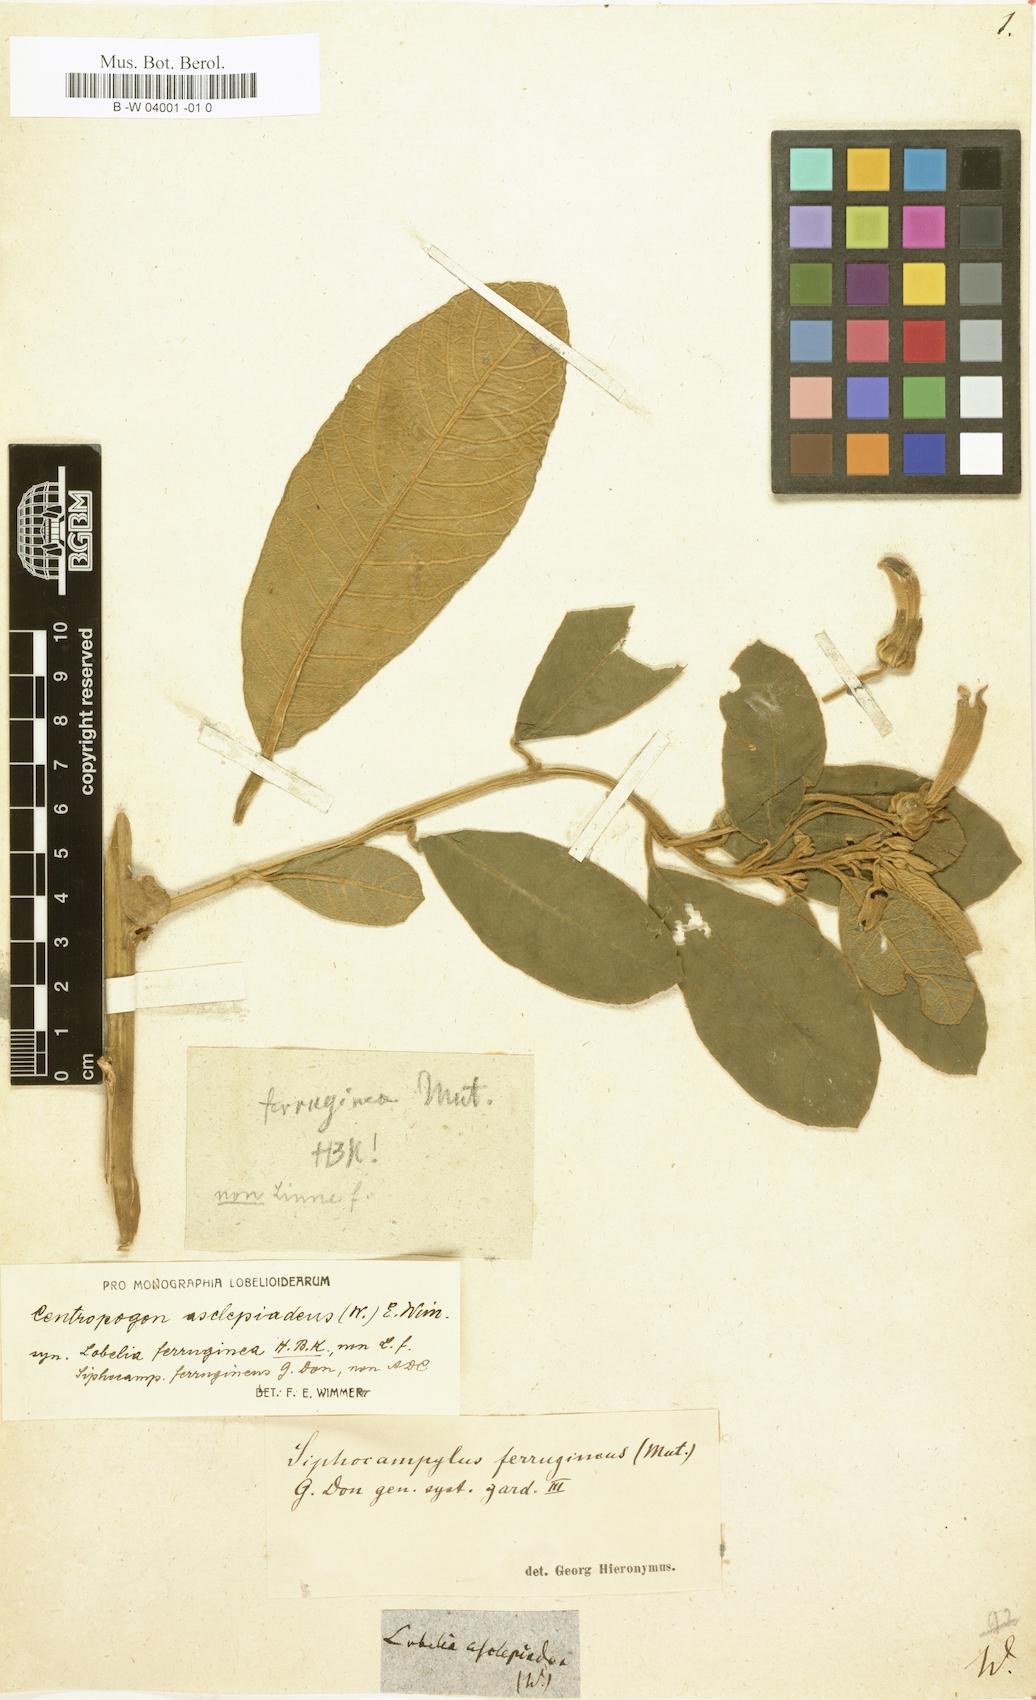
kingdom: Plantae
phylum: Tracheophyta
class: Magnoliopsida
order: Asterales
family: Campanulaceae
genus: Centropogon
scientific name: Centropogon asclepiadeus
